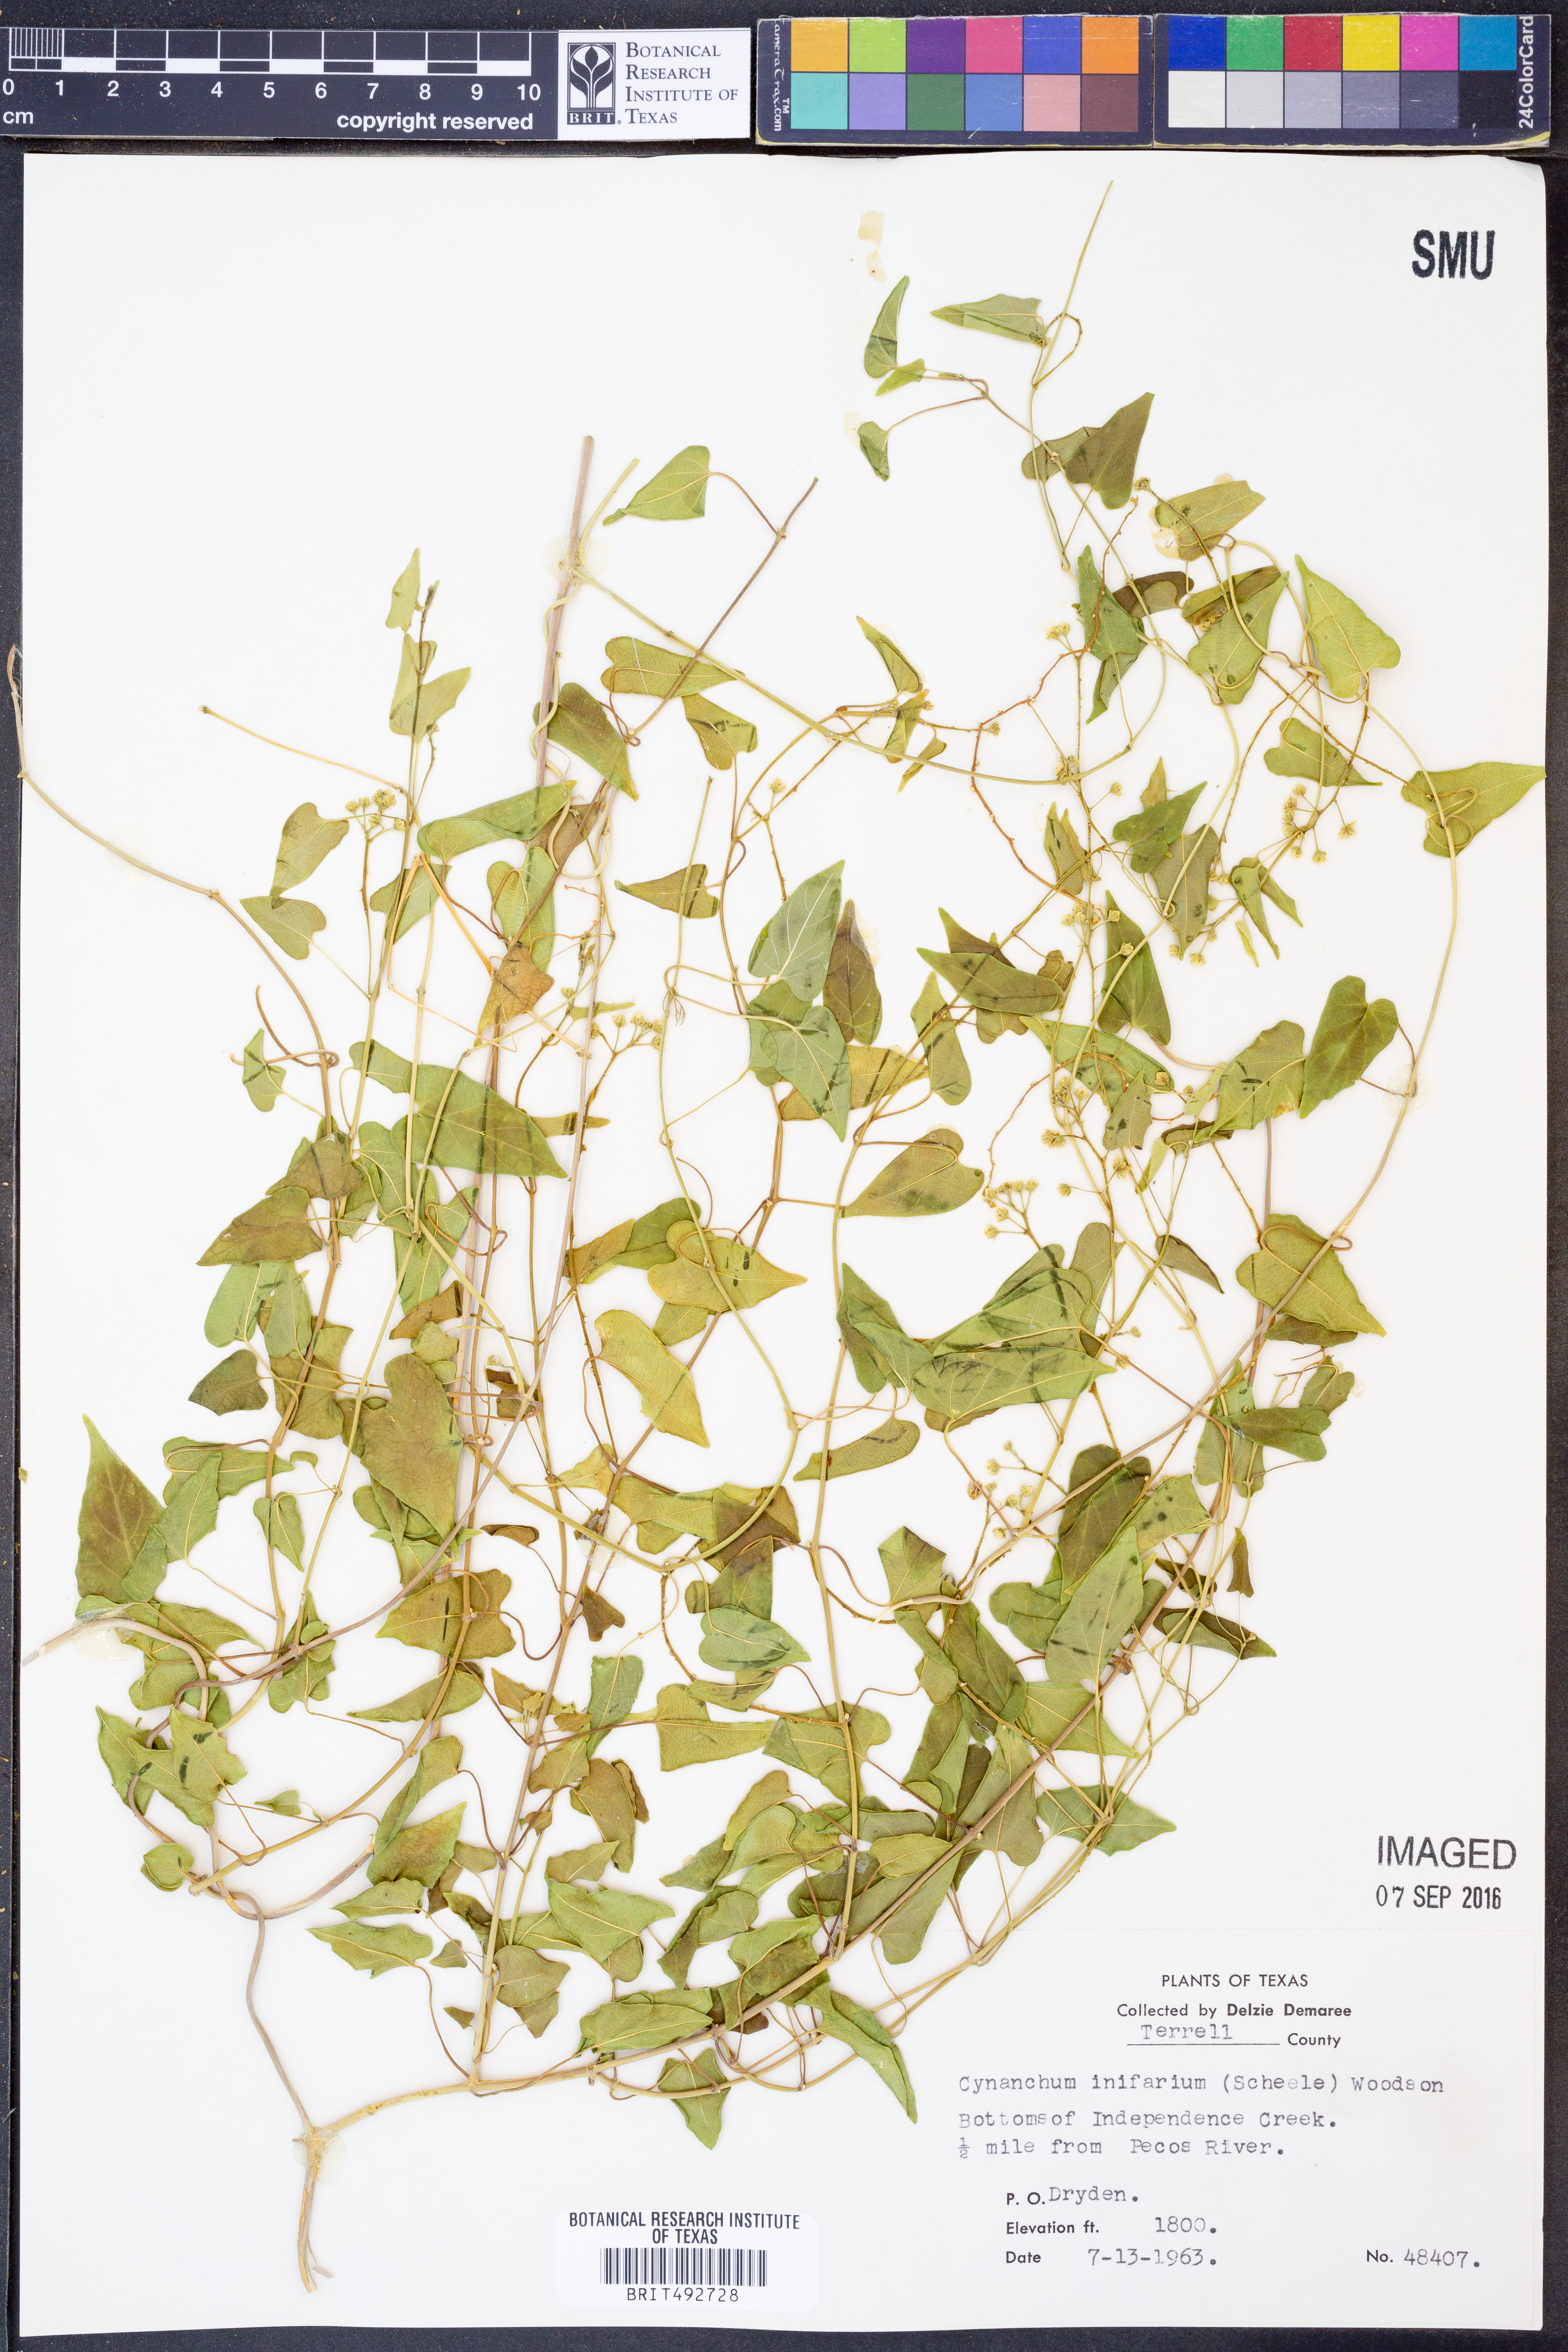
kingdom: Plantae
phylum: Tracheophyta
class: Magnoliopsida
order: Gentianales
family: Apocynaceae
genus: Cynanchum
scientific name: Cynanchum racemosum
